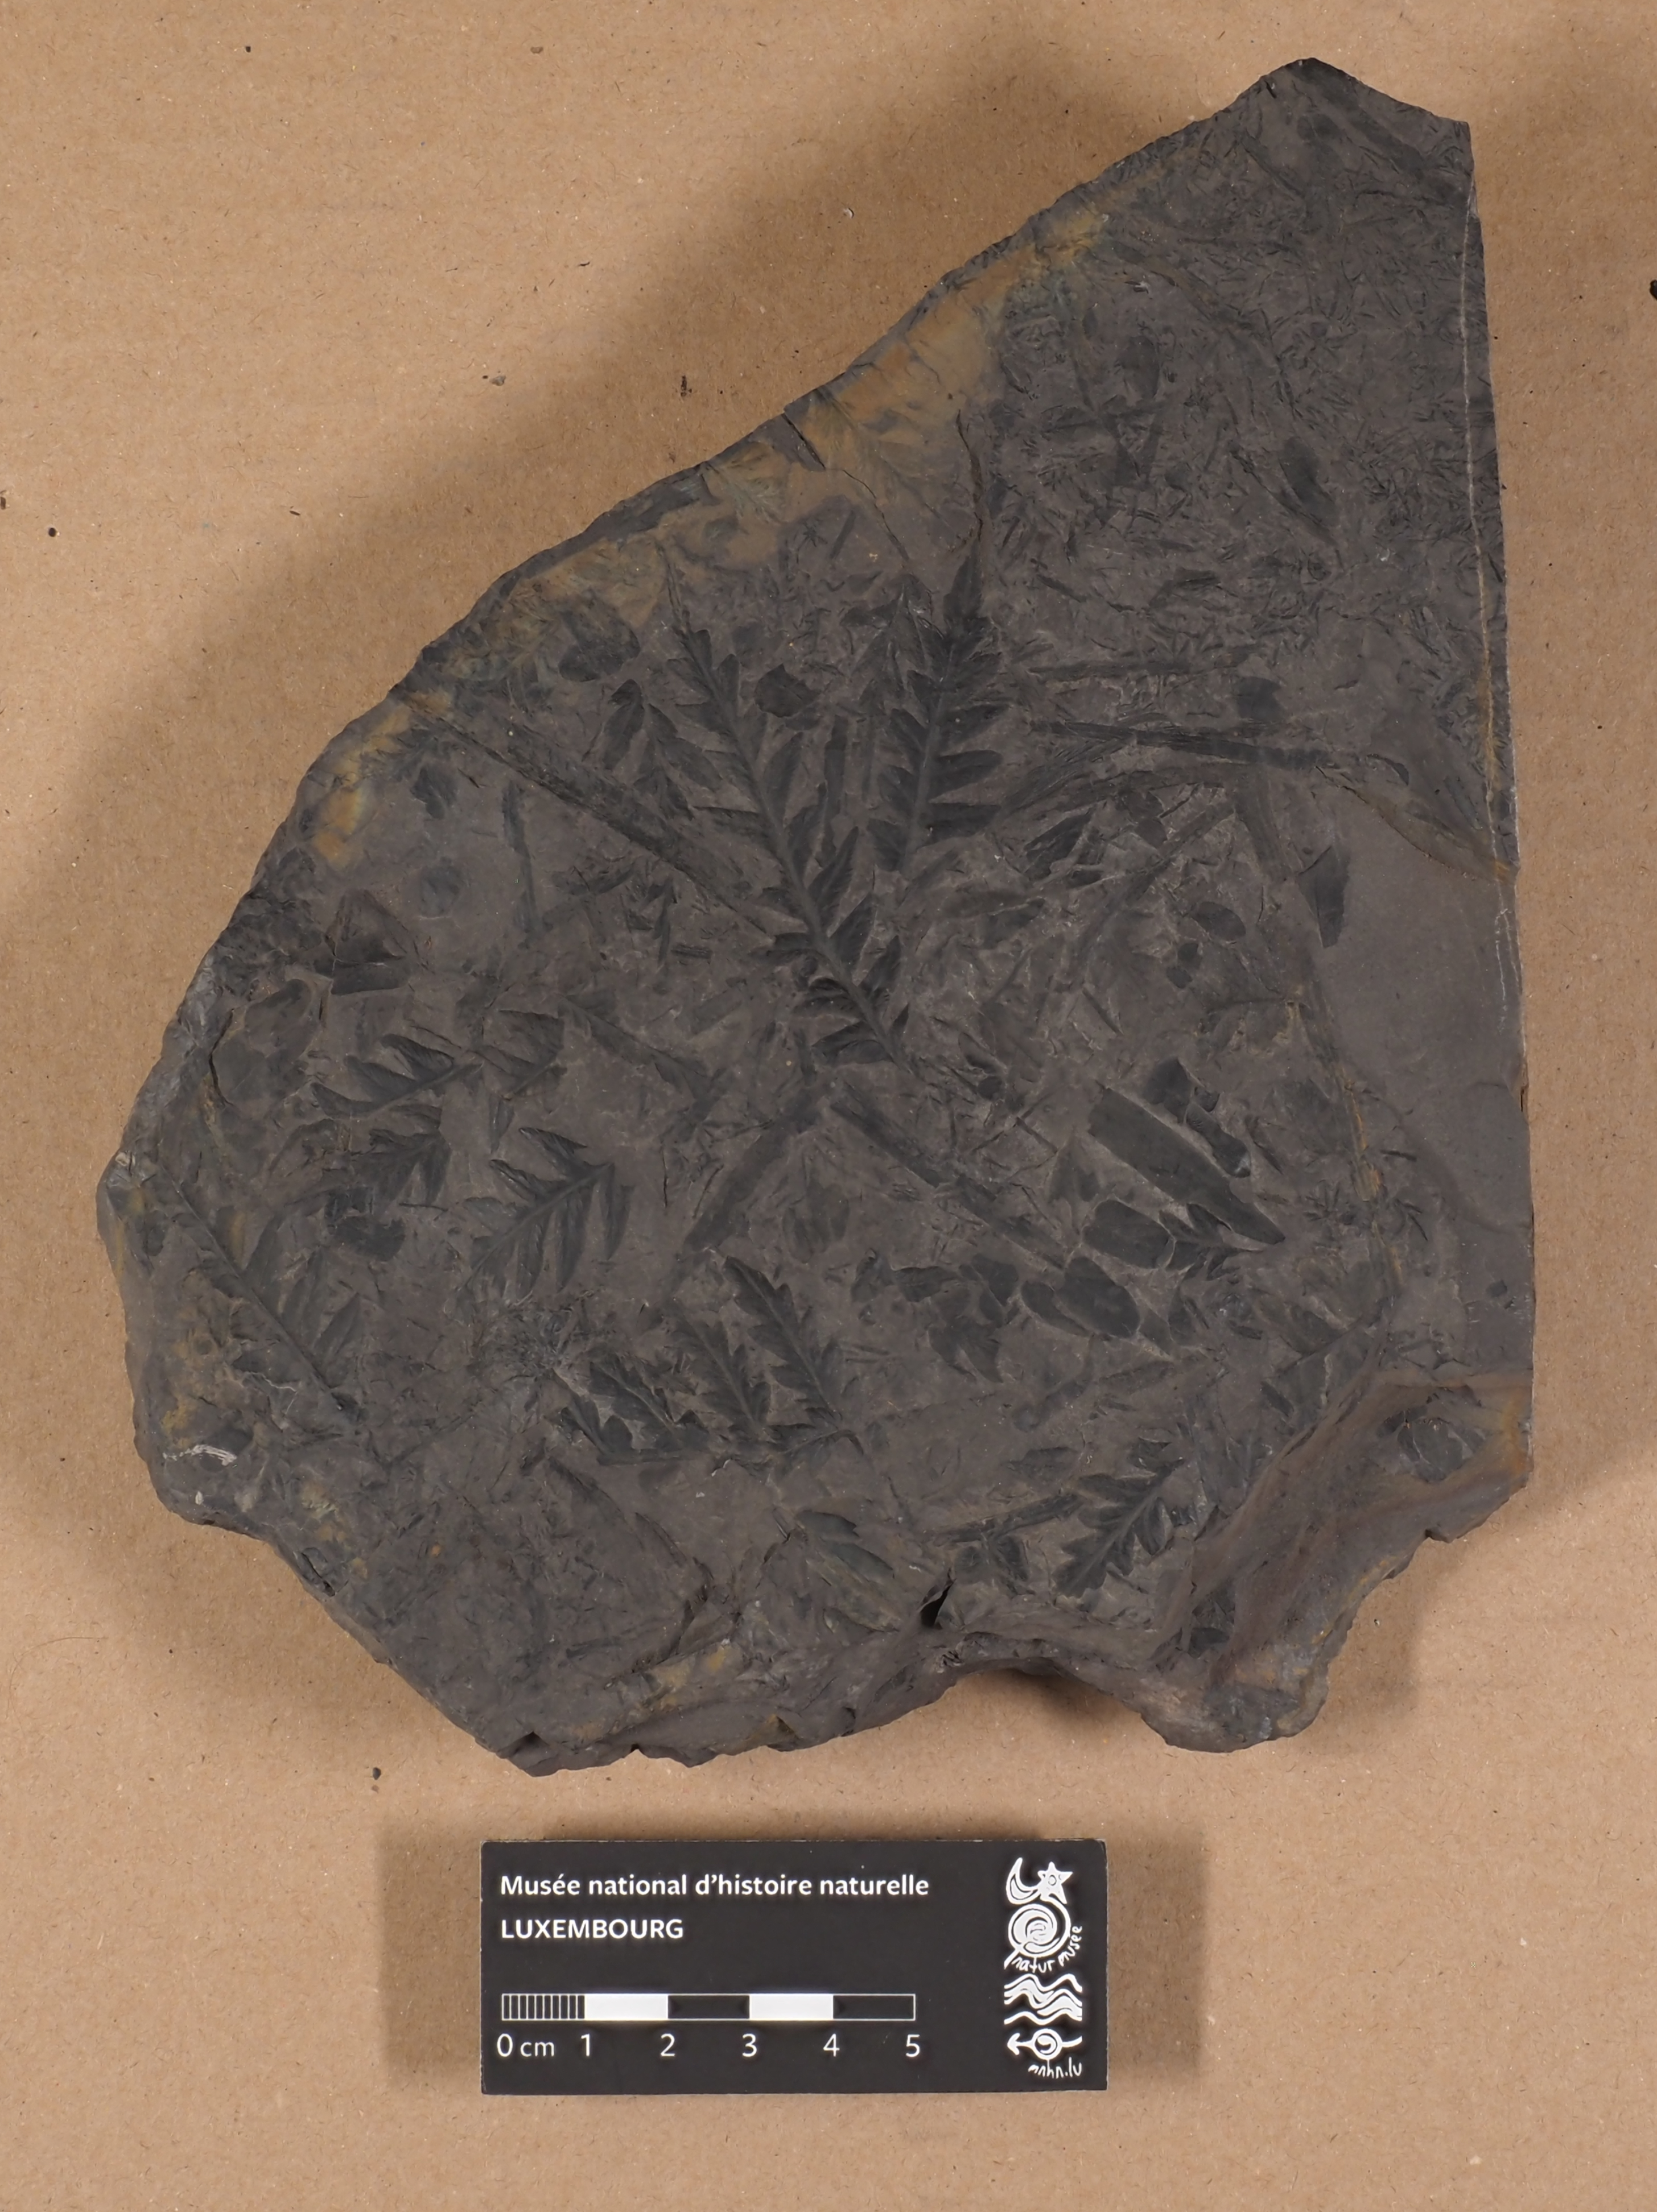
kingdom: Plantae
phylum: Tracheophyta
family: Pachytestaceae
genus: Alethopteris
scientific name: Alethopteris
